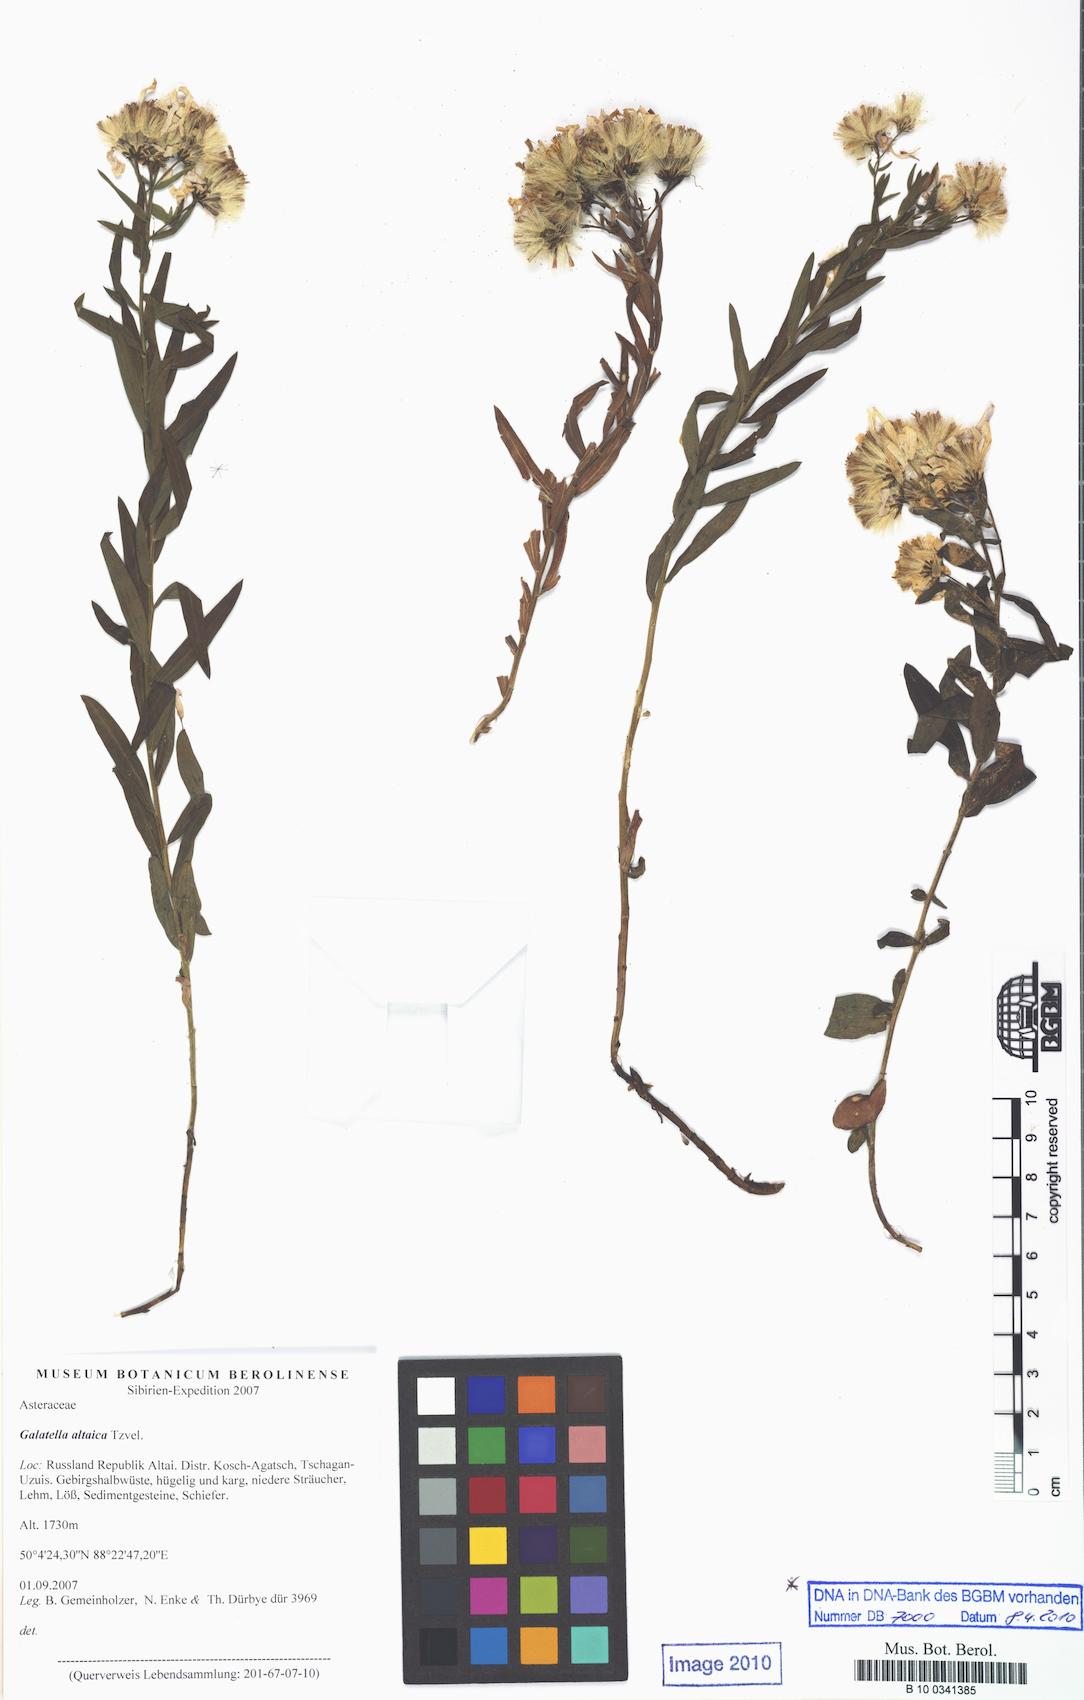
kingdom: Plantae
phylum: Tracheophyta
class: Magnoliopsida
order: Asterales
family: Asteraceae
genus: Galatella
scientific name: Galatella altaica
